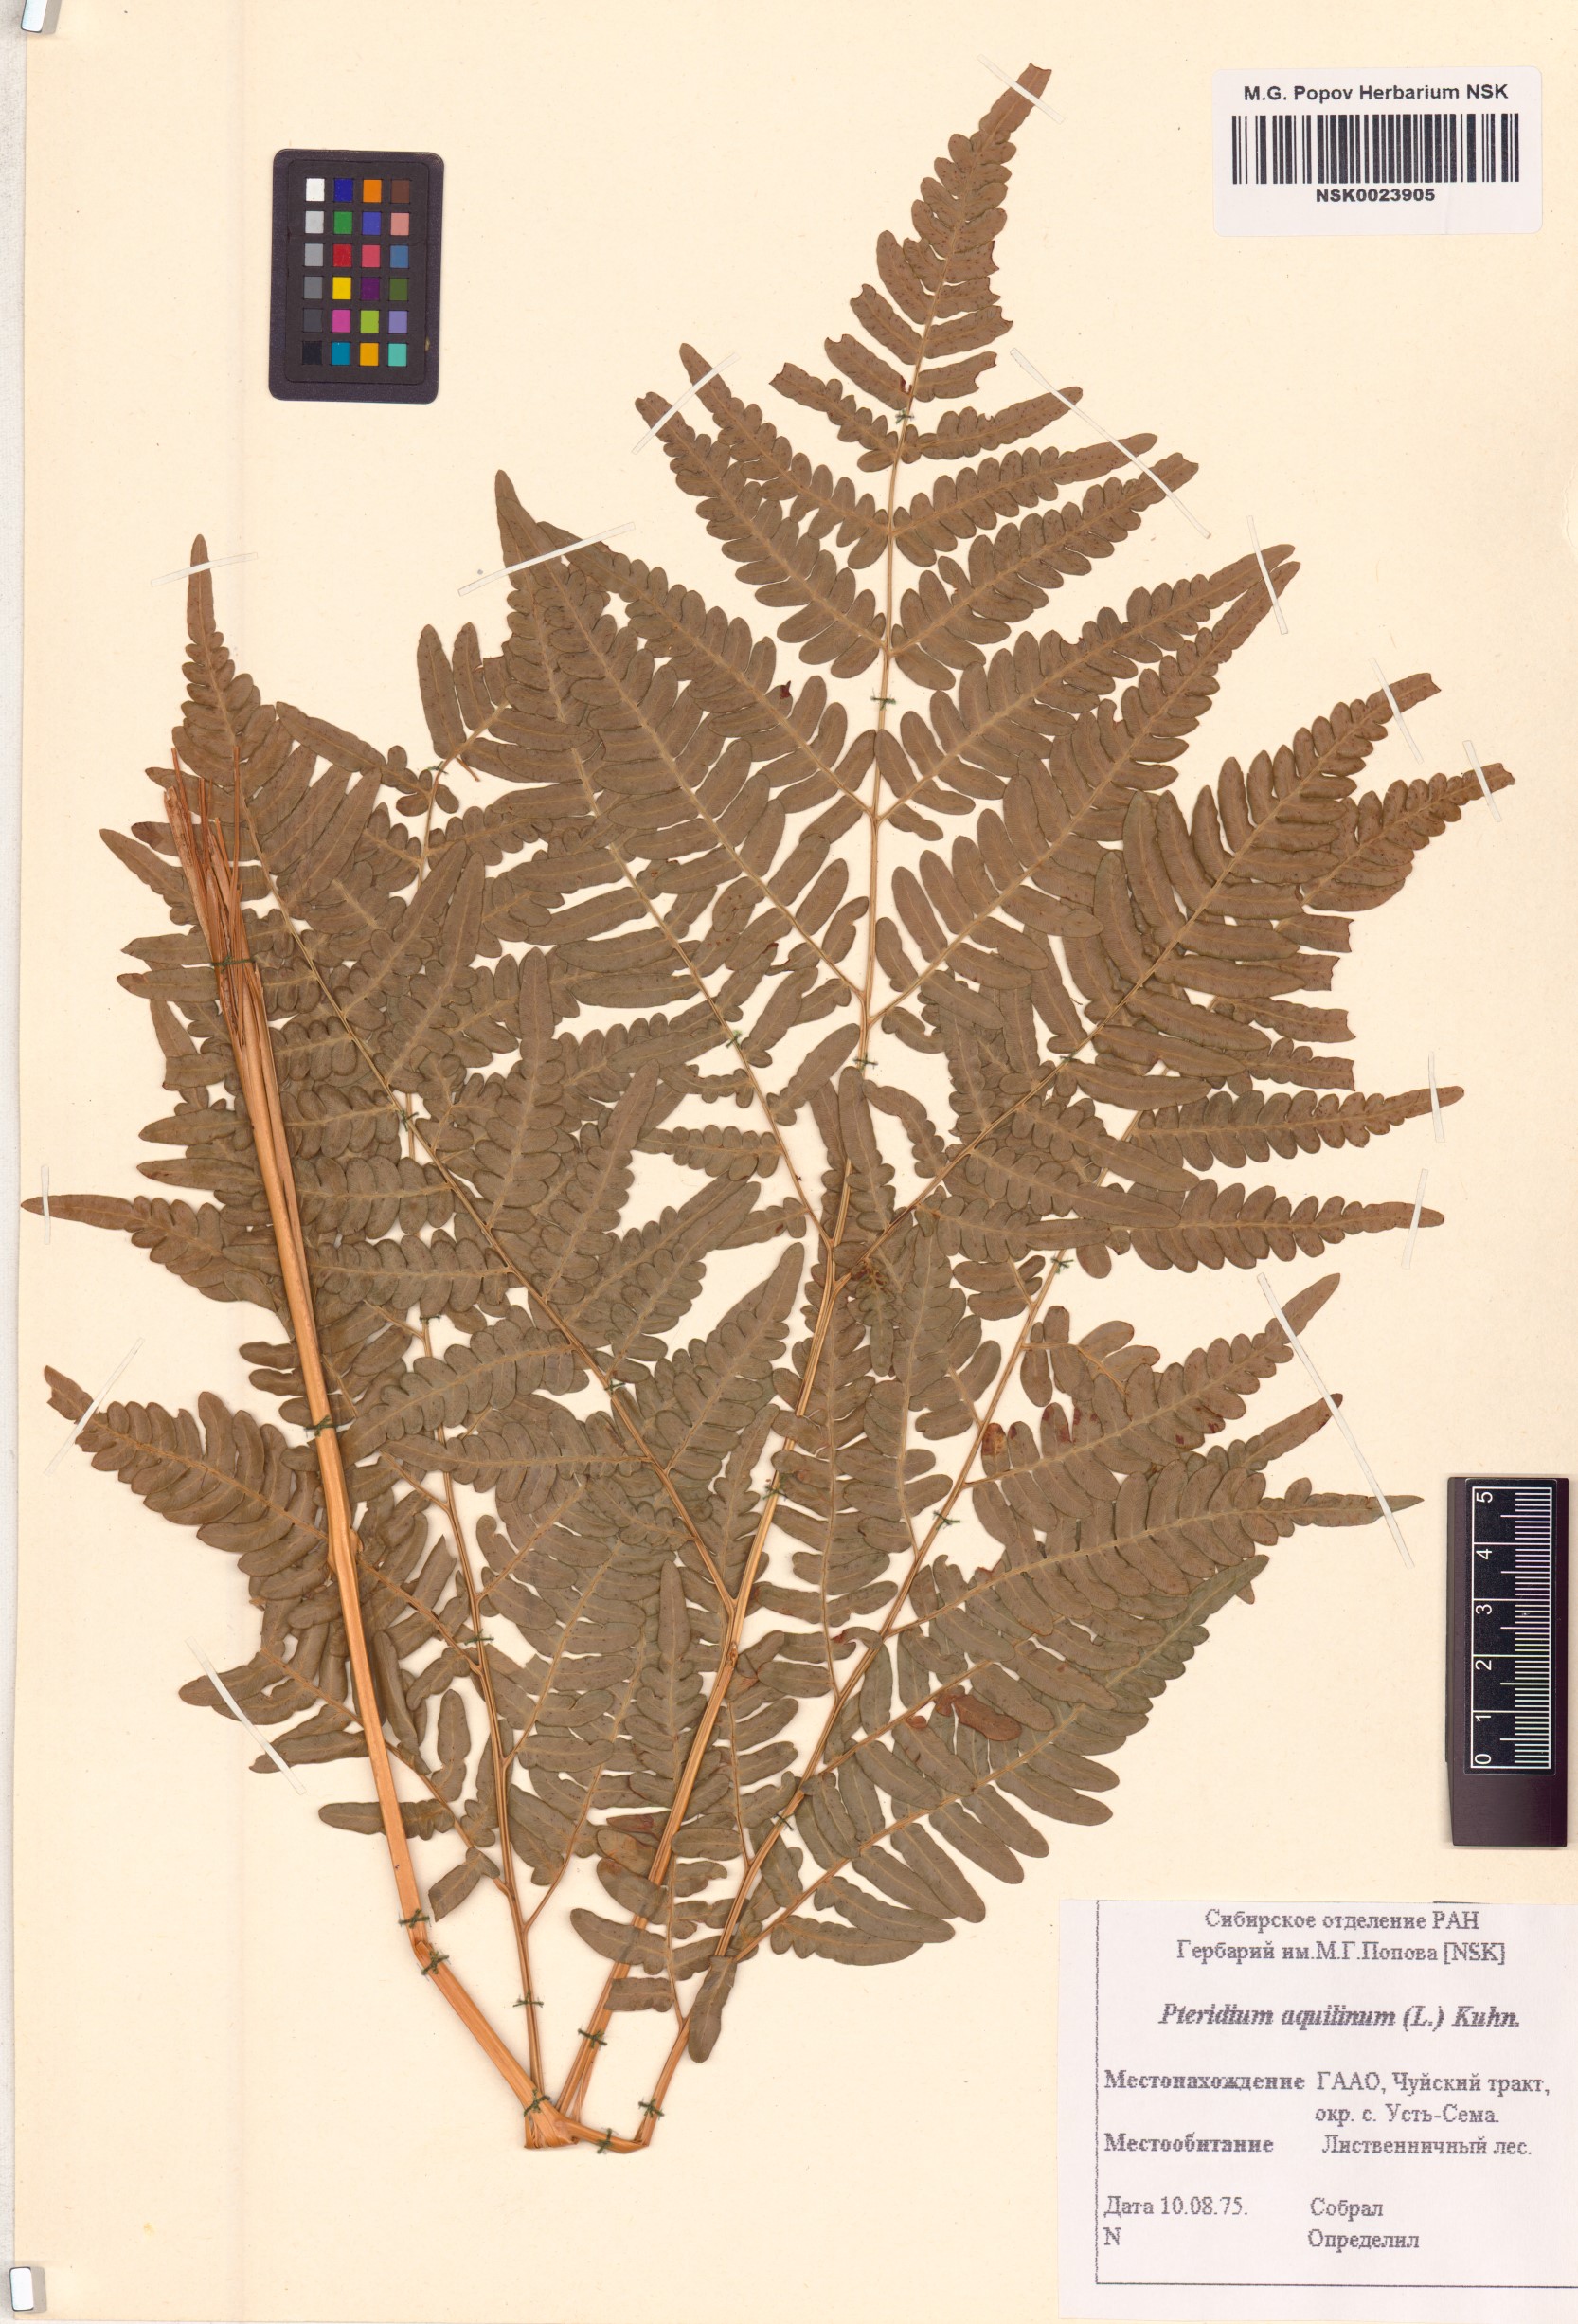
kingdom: Plantae
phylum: Tracheophyta
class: Polypodiopsida
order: Polypodiales
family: Dennstaedtiaceae
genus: Pteridium
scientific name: Pteridium aquilinum
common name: Bracken
